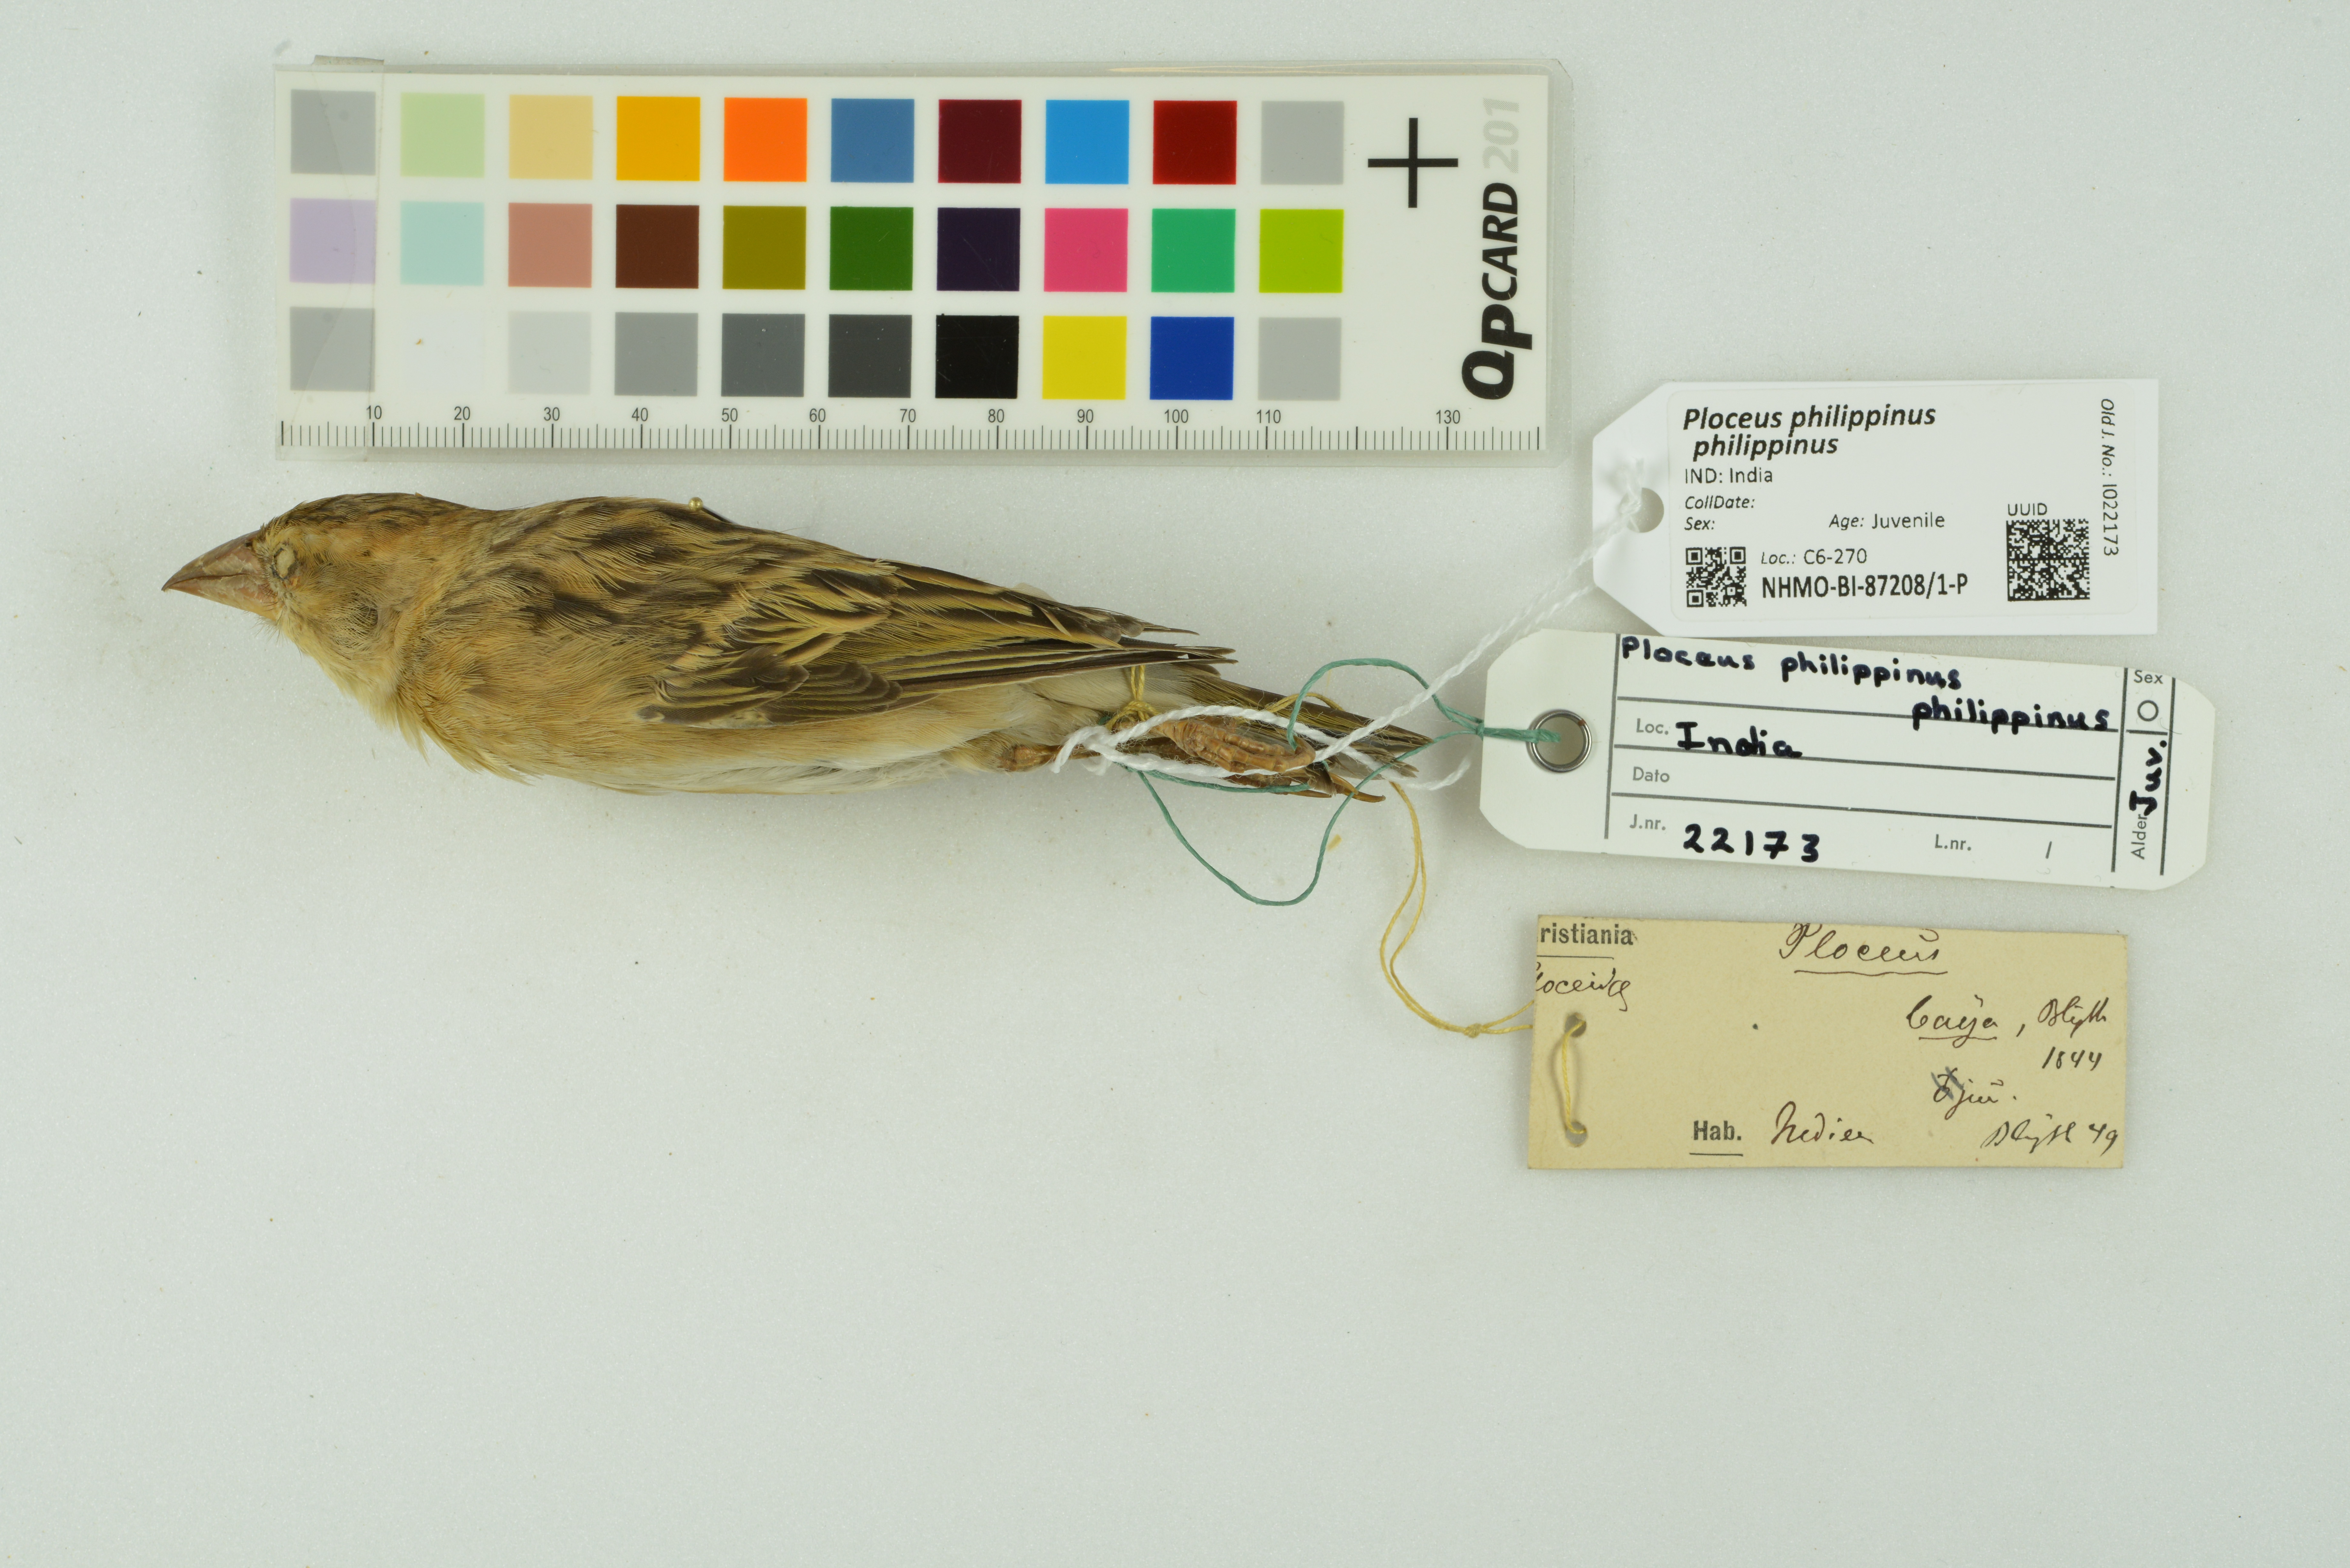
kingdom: Animalia
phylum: Chordata
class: Aves
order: Passeriformes
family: Ploceidae
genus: Ploceus
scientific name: Ploceus philippinus
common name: Baya weaver
